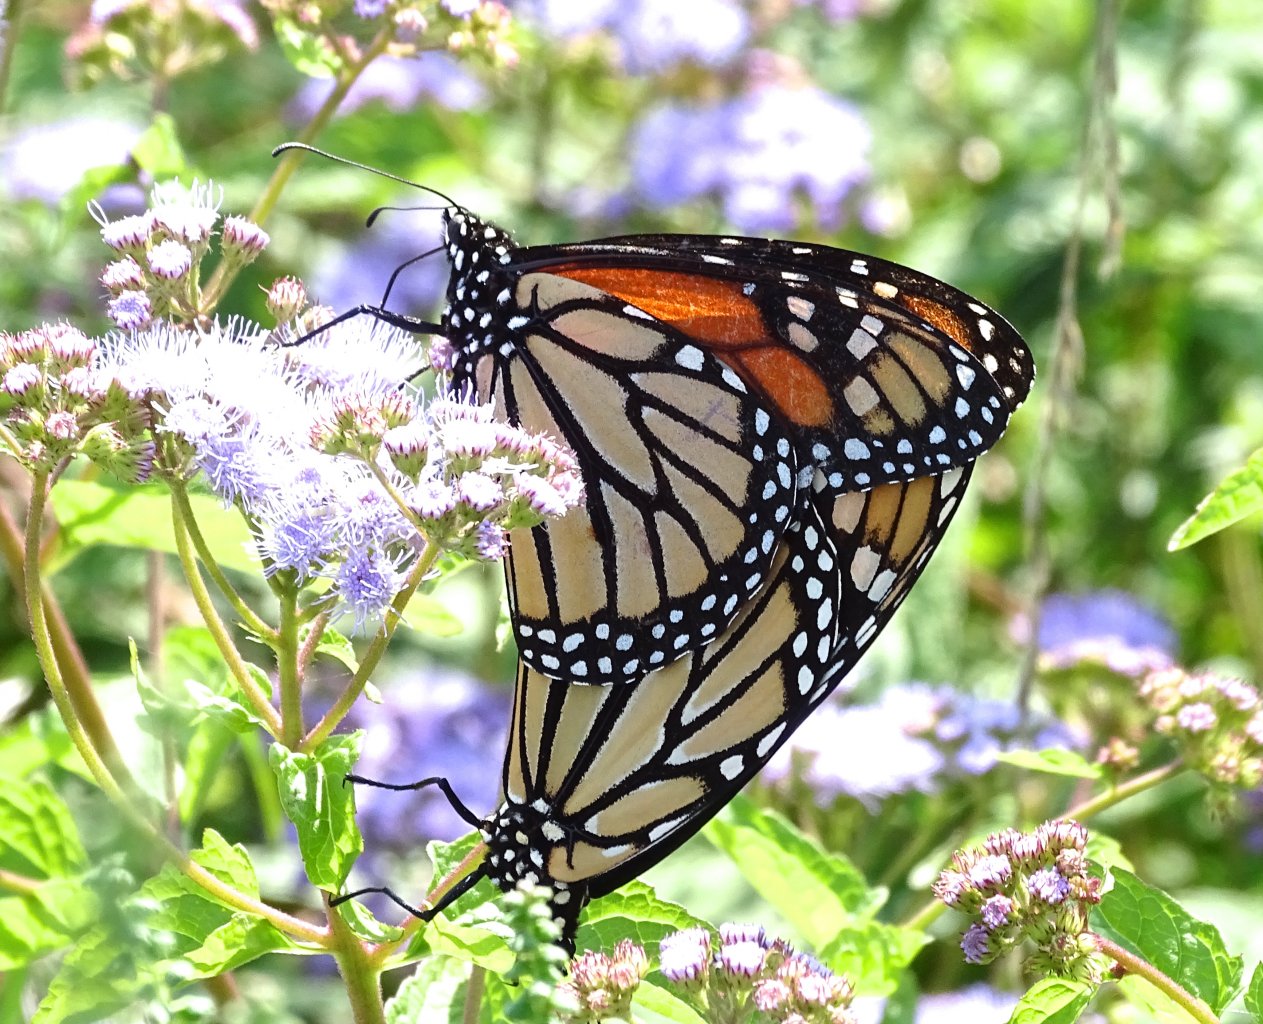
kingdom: Animalia
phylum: Arthropoda
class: Insecta
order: Lepidoptera
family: Nymphalidae
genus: Danaus
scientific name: Danaus plexippus
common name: Monarch
